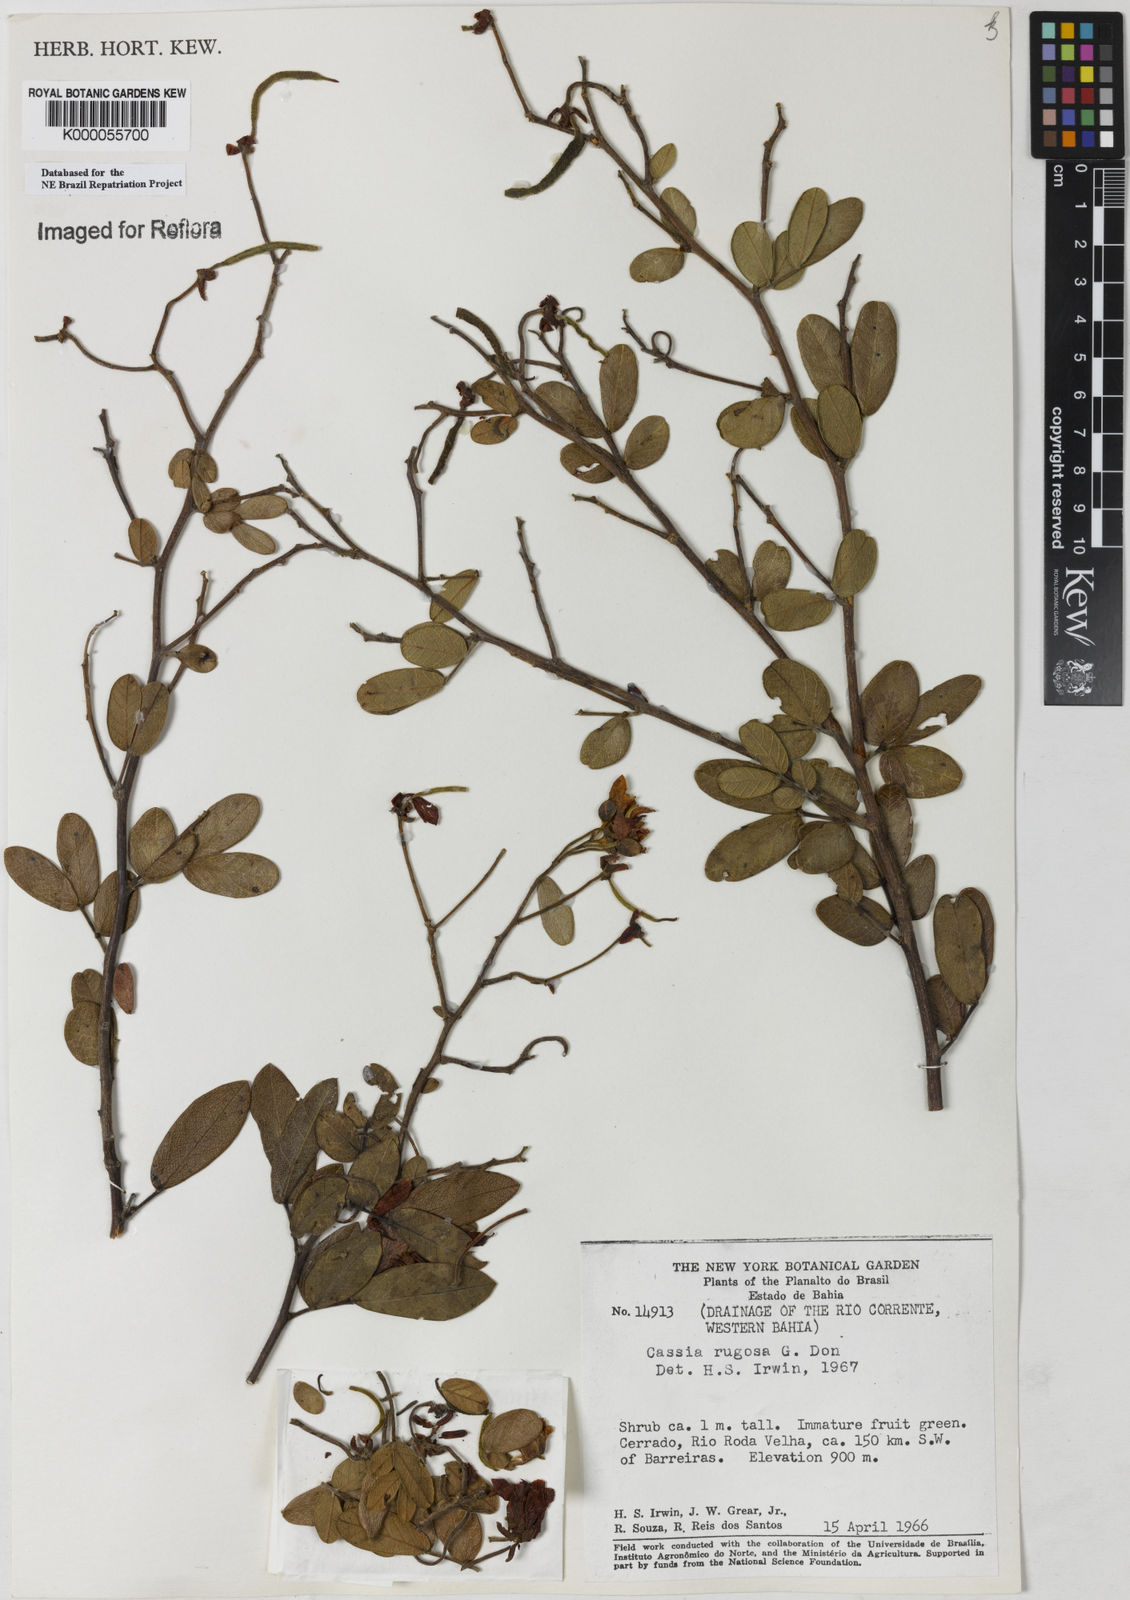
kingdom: Plantae
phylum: Tracheophyta
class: Magnoliopsida
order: Fabales
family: Fabaceae
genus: Senna
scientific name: Senna rugosa
